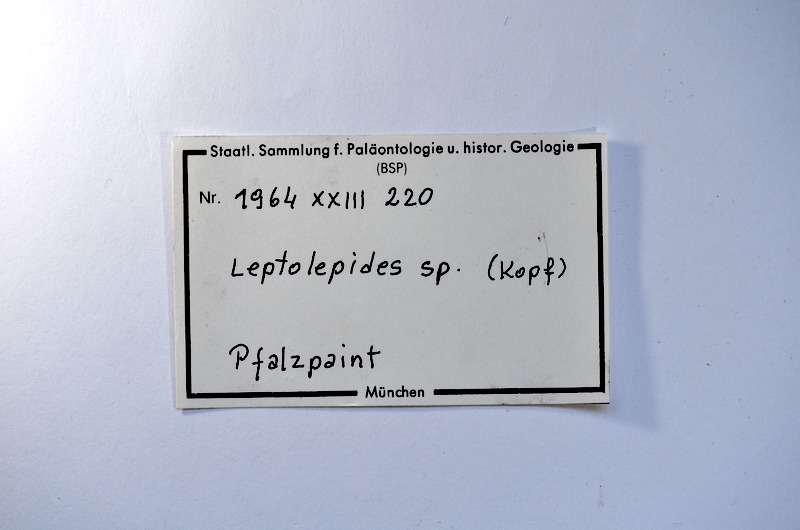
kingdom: Animalia
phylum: Chordata
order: Salmoniformes
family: Orthogonikleithridae
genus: Leptolepides
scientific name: Leptolepides
